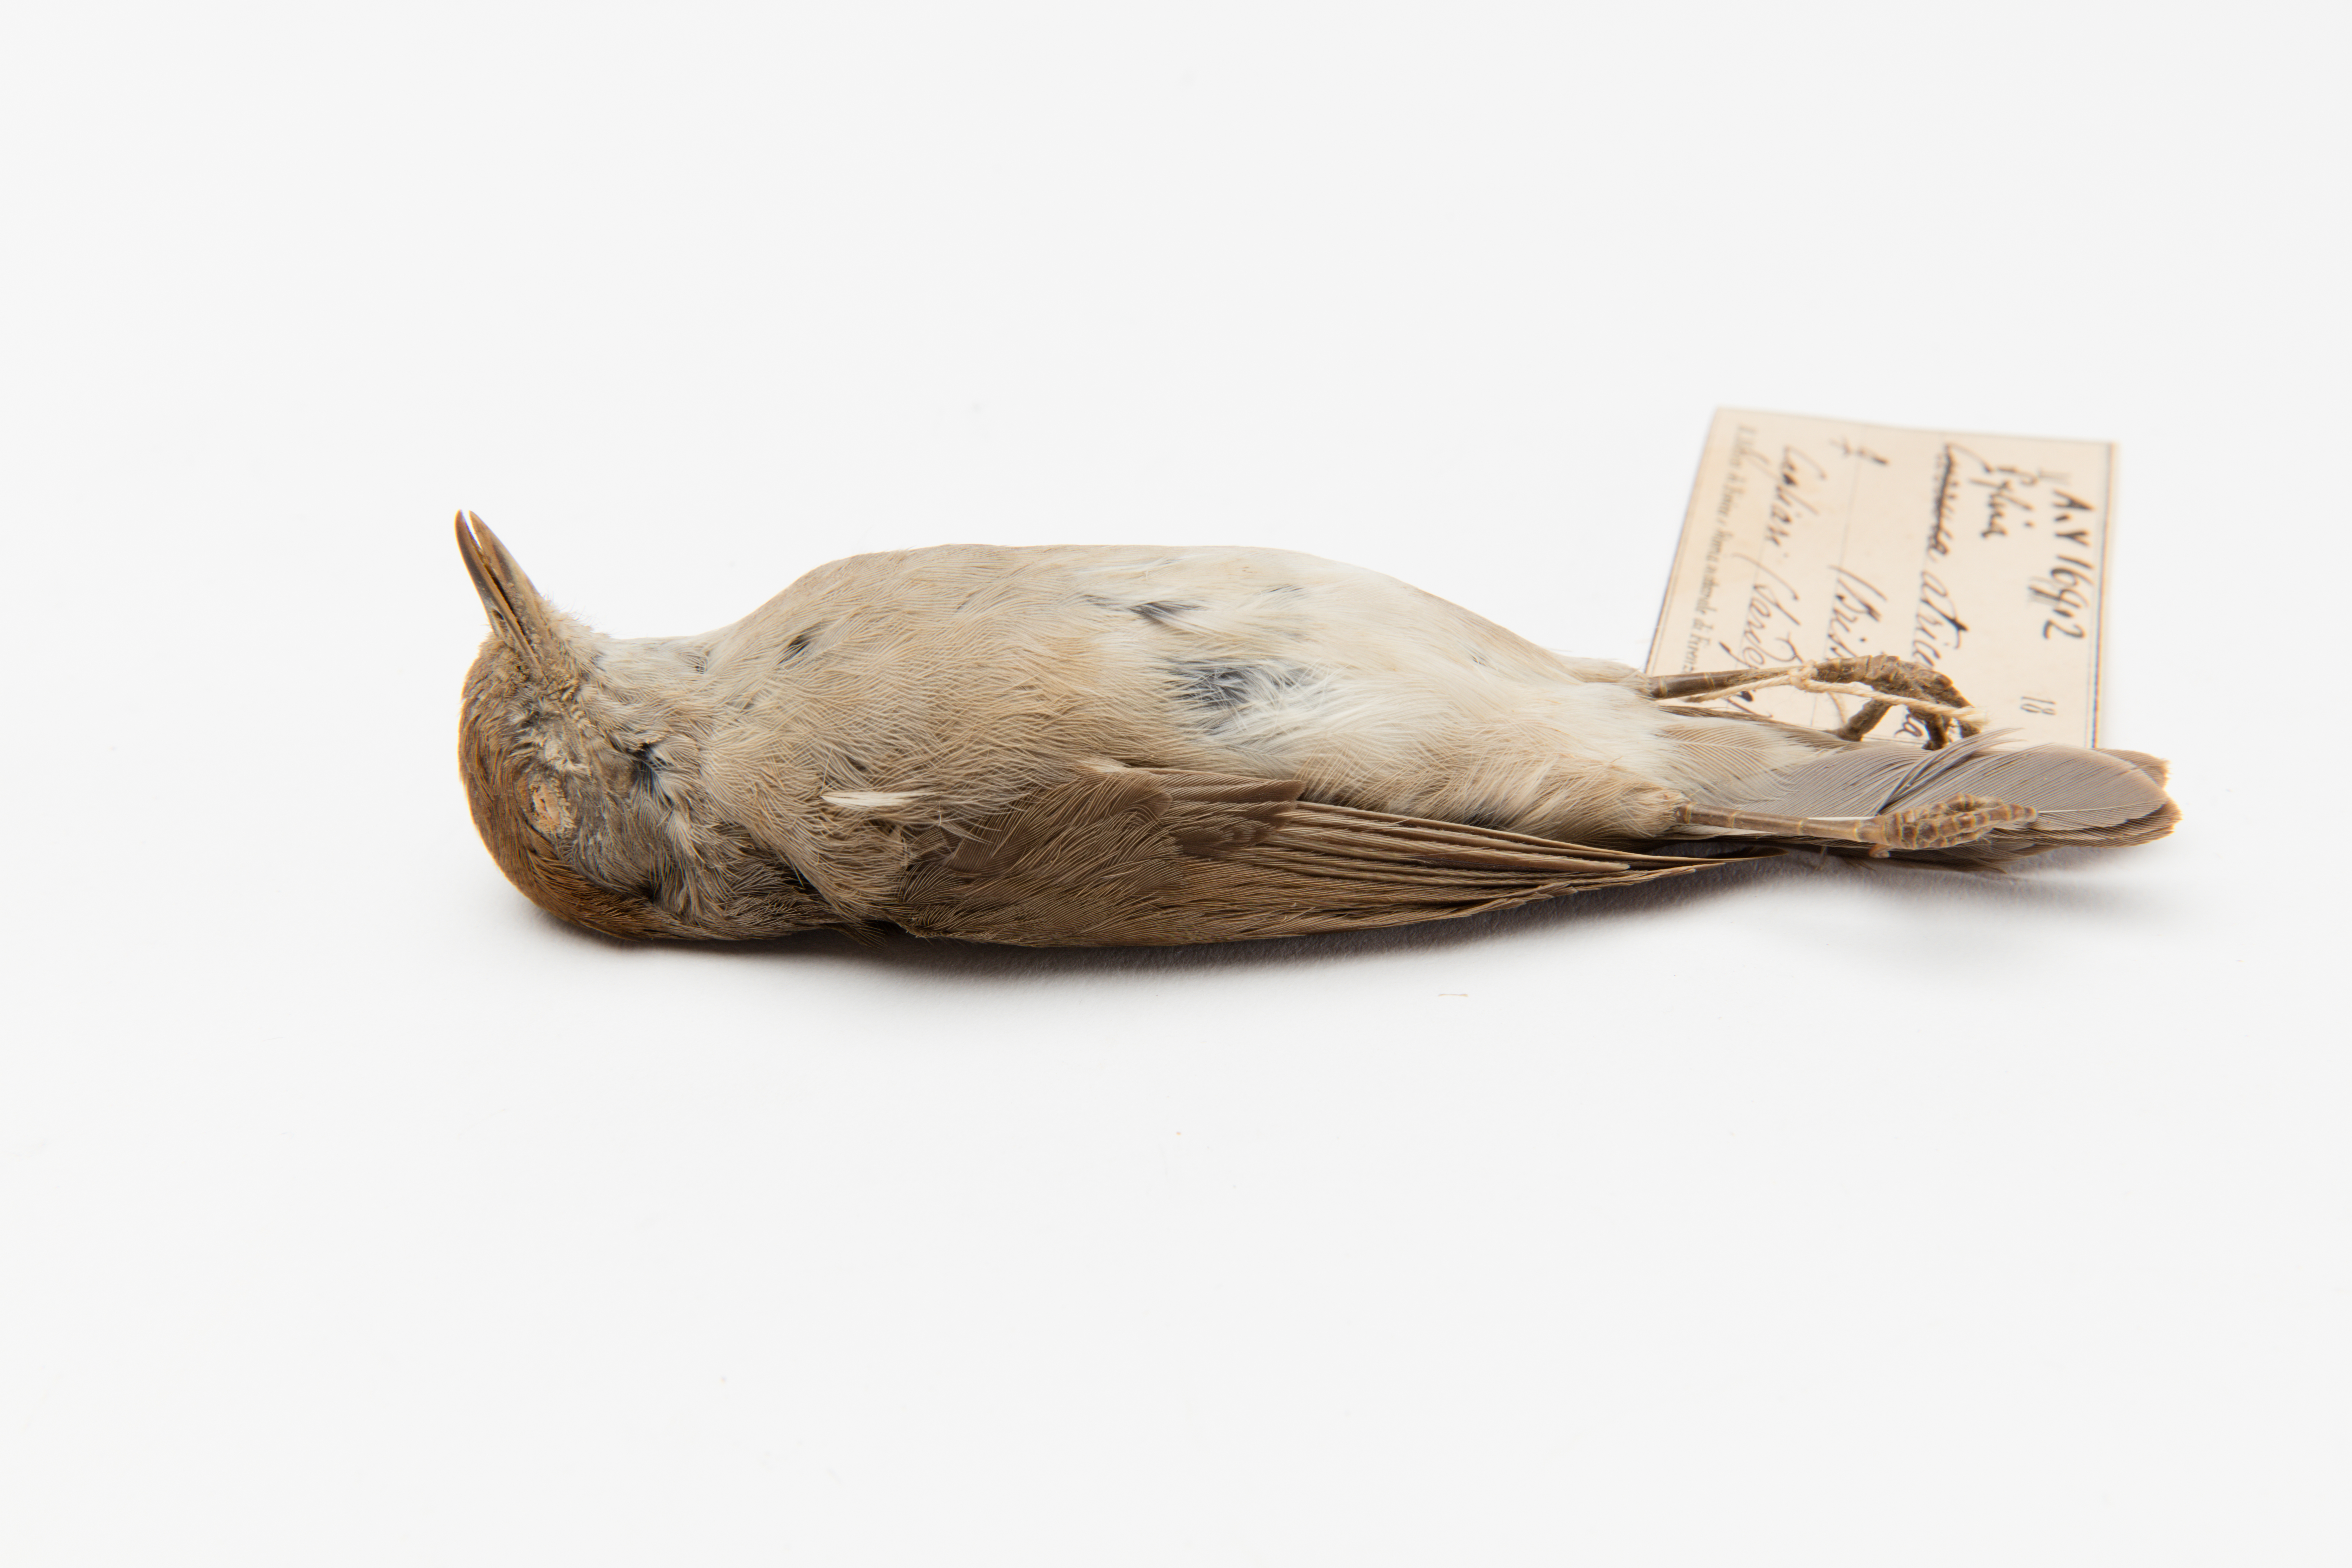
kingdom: Animalia
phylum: Chordata
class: Aves
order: Passeriformes
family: Sylviidae
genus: Sylvia
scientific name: Sylvia atricapilla
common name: Eurasian blackcap
